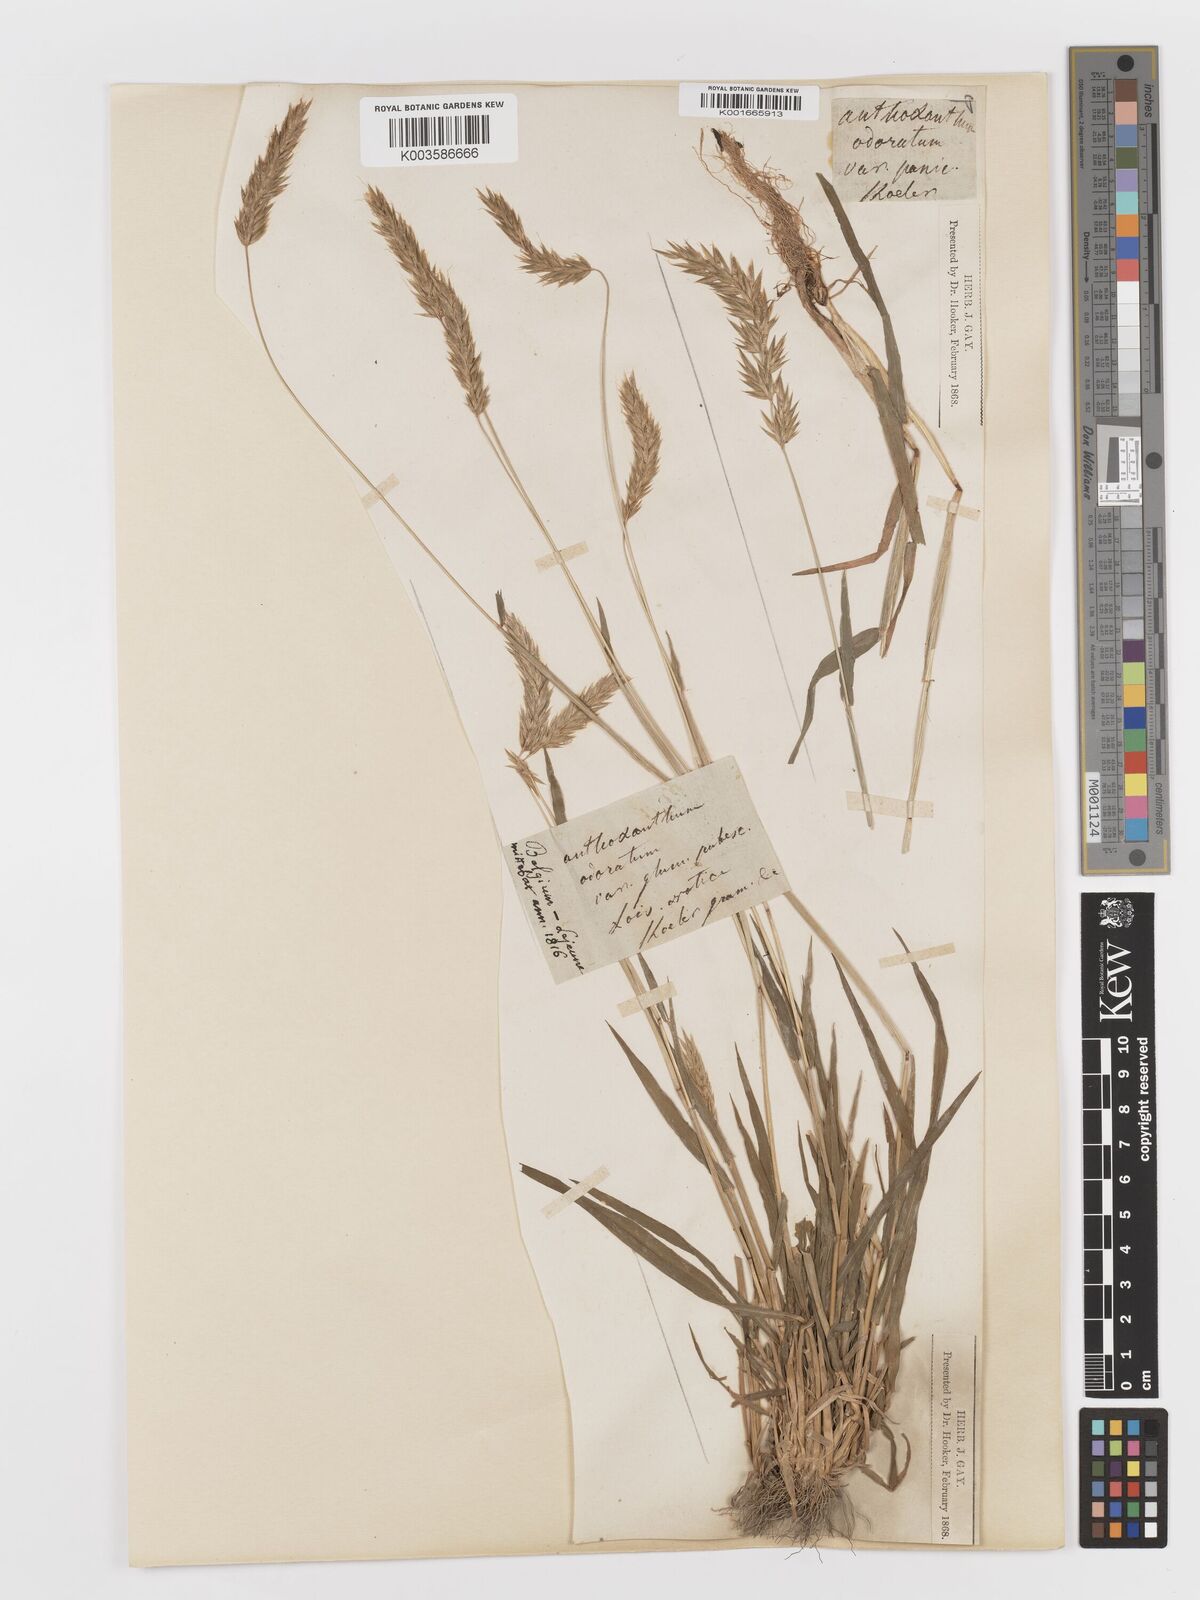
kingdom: Plantae
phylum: Tracheophyta
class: Liliopsida
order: Poales
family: Poaceae
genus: Anthoxanthum
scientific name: Anthoxanthum odoratum
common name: Sweet vernalgrass
